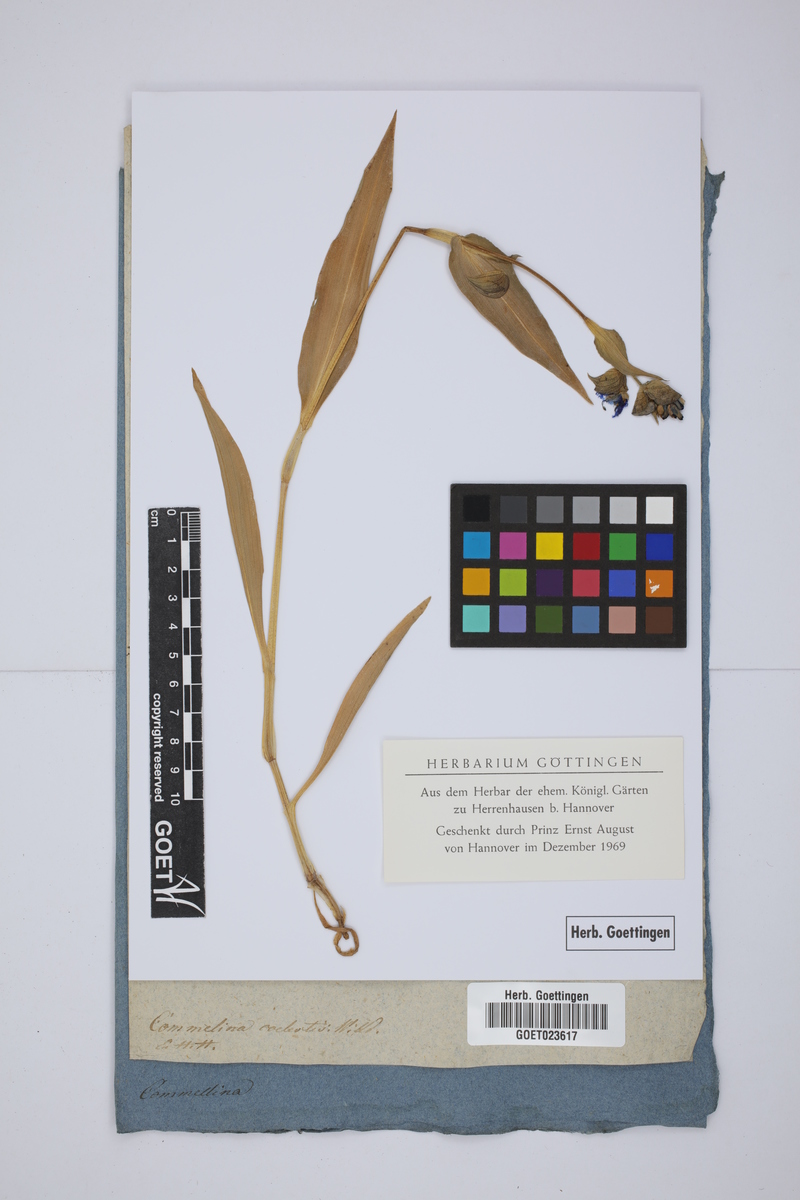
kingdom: Plantae
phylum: Tracheophyta
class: Liliopsida
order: Commelinales
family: Commelinaceae
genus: Commelina
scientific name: Commelina tuberosa
